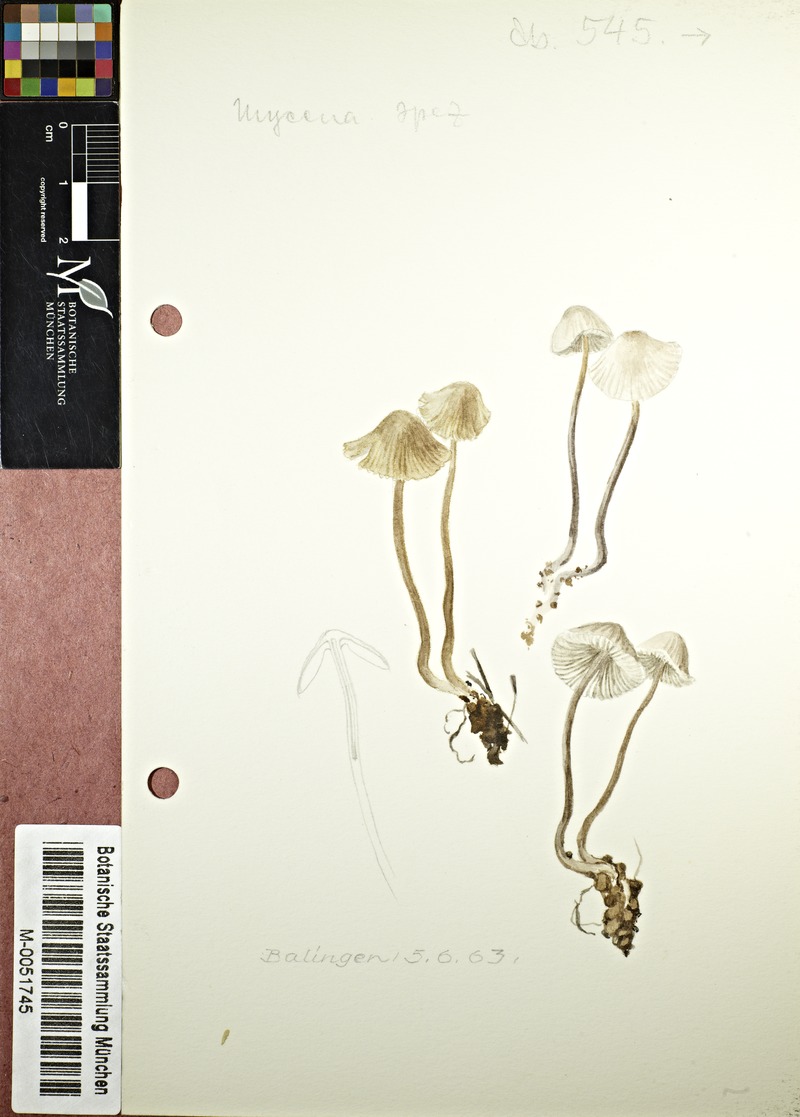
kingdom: Fungi
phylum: Basidiomycota
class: Agaricomycetes
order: Agaricales
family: Mycenaceae
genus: Mycena
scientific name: Mycena
